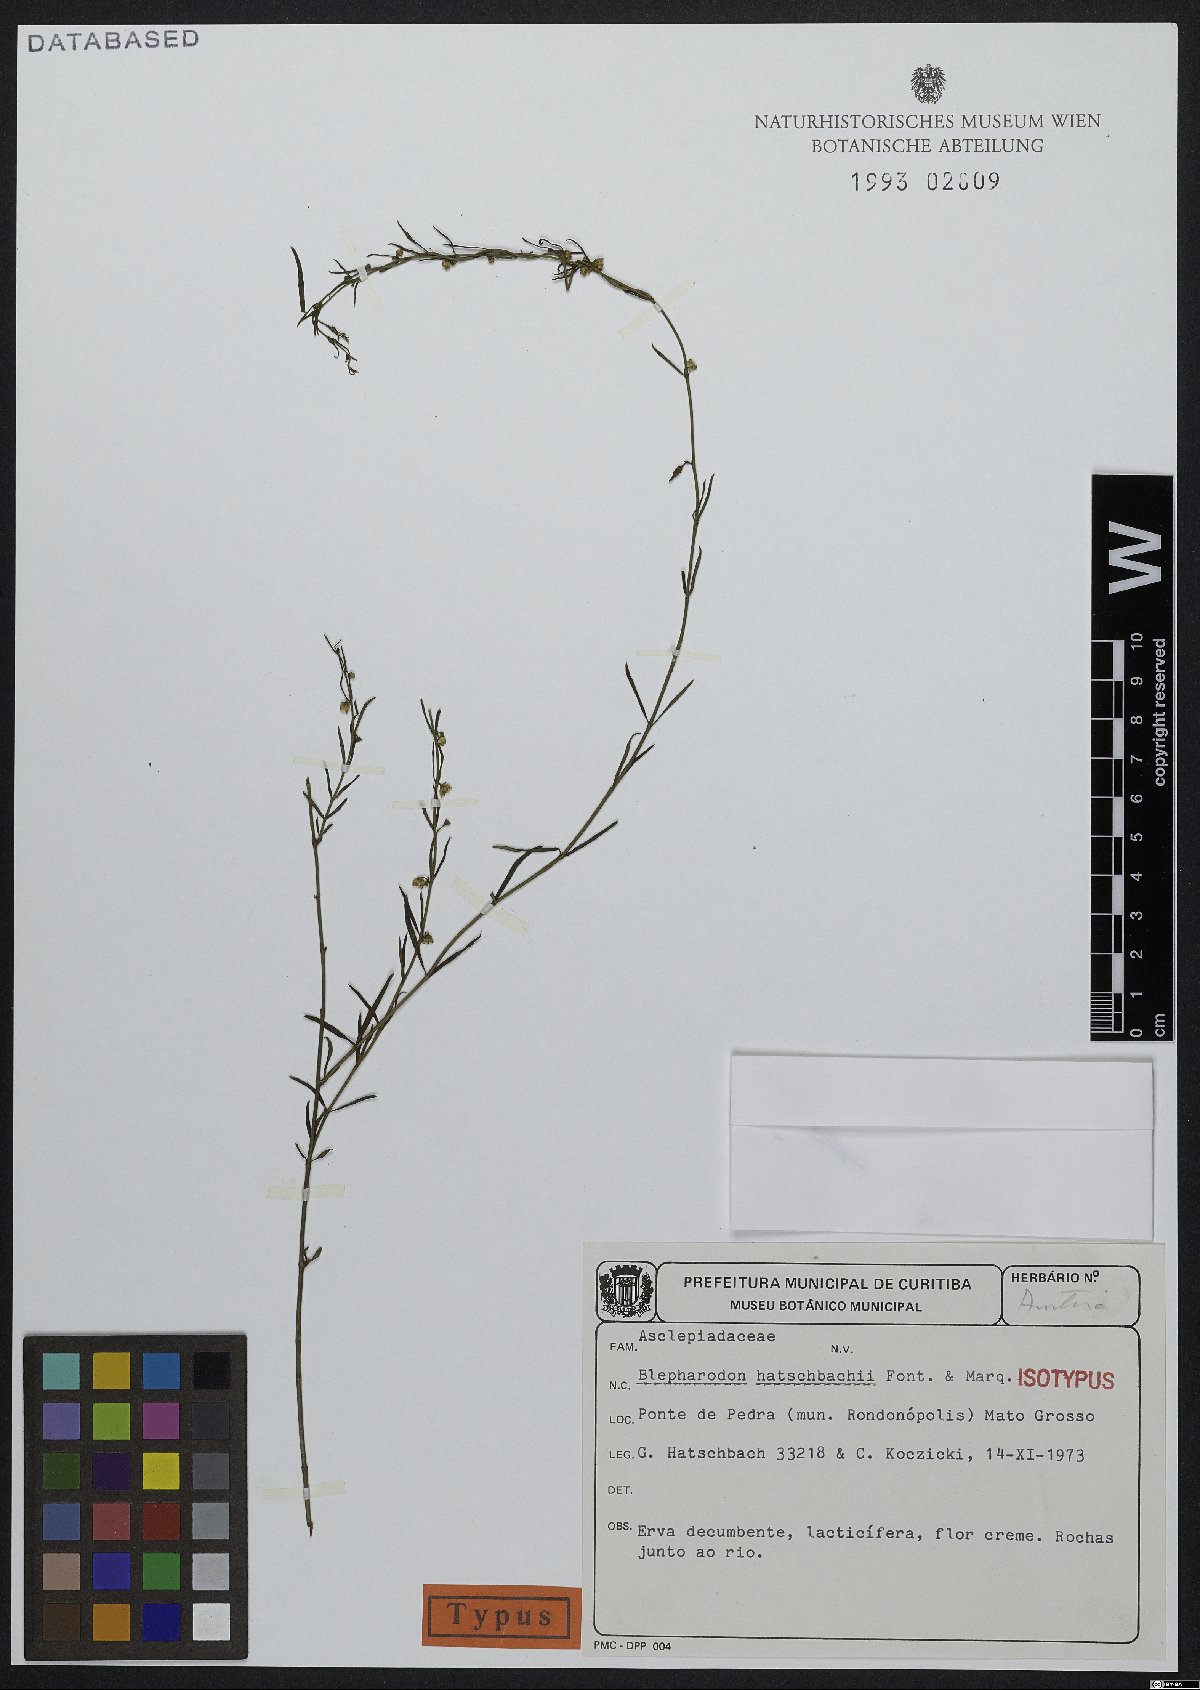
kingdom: Plantae
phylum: Tracheophyta
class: Magnoliopsida
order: Gentianales
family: Apocynaceae
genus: Blepharodon
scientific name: Blepharodon hatschbachii
